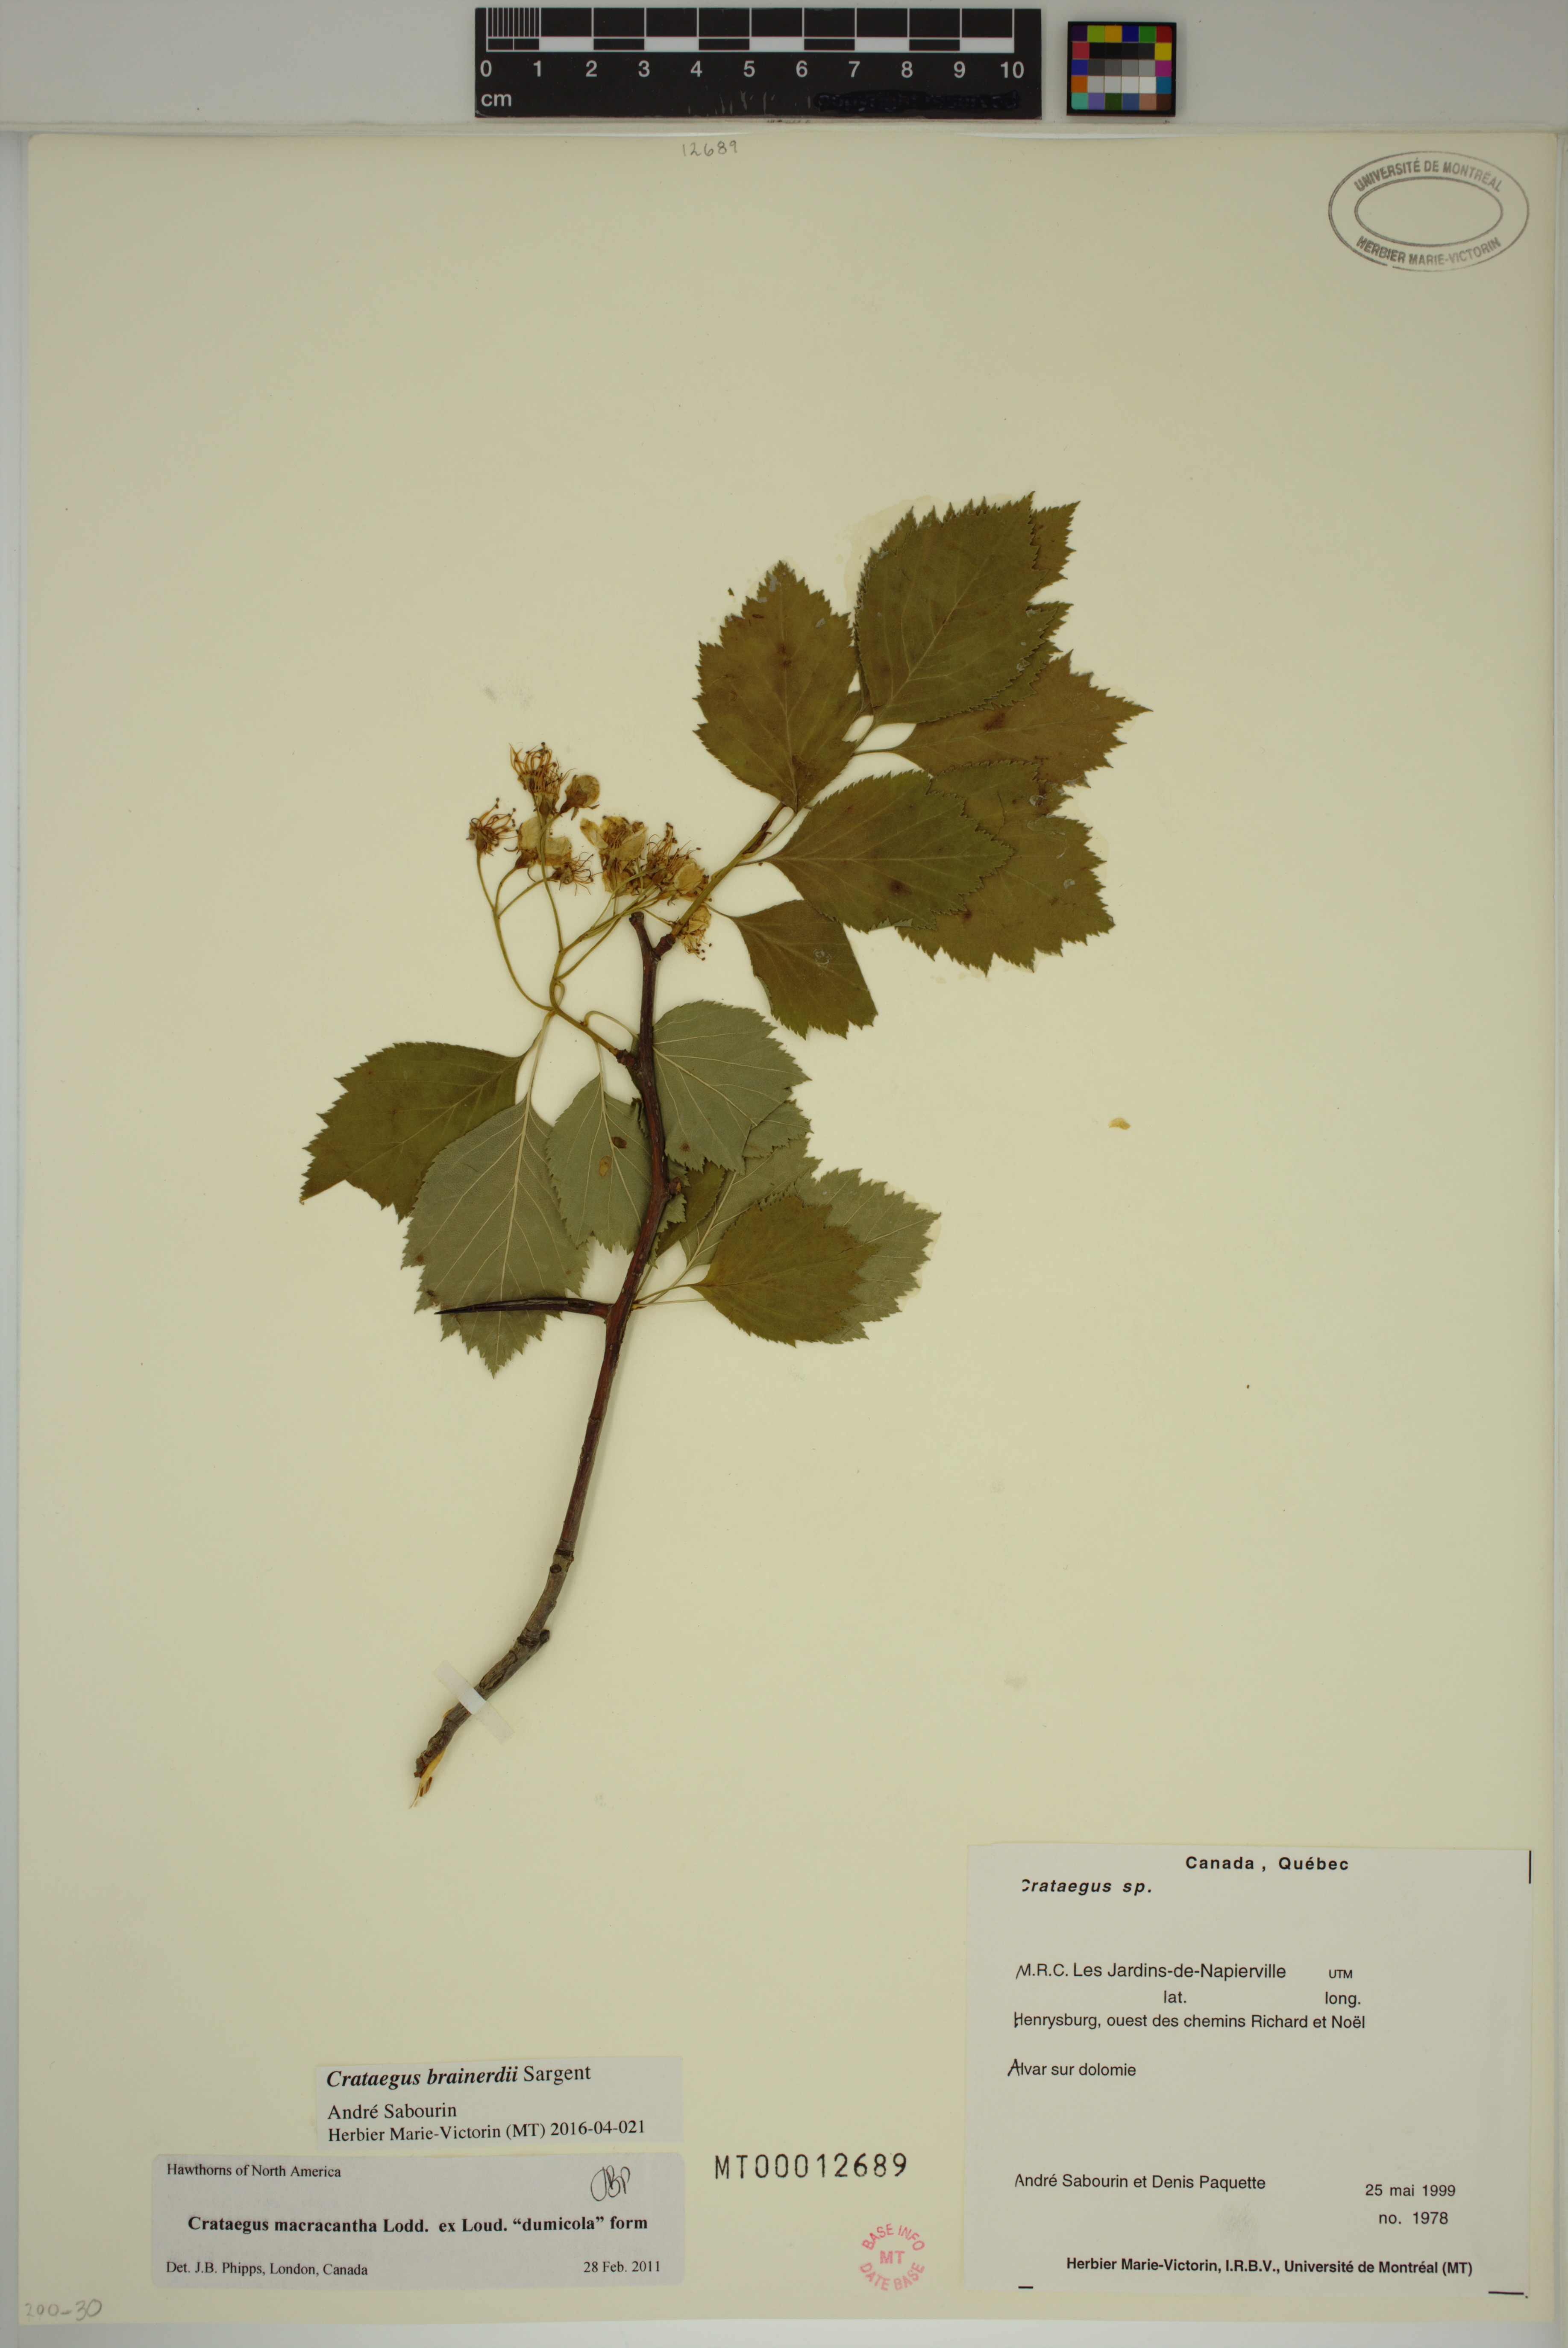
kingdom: Plantae
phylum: Tracheophyta
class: Magnoliopsida
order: Rosales
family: Rosaceae
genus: Crataegus
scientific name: Crataegus scabrida
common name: Rough hawthorn
